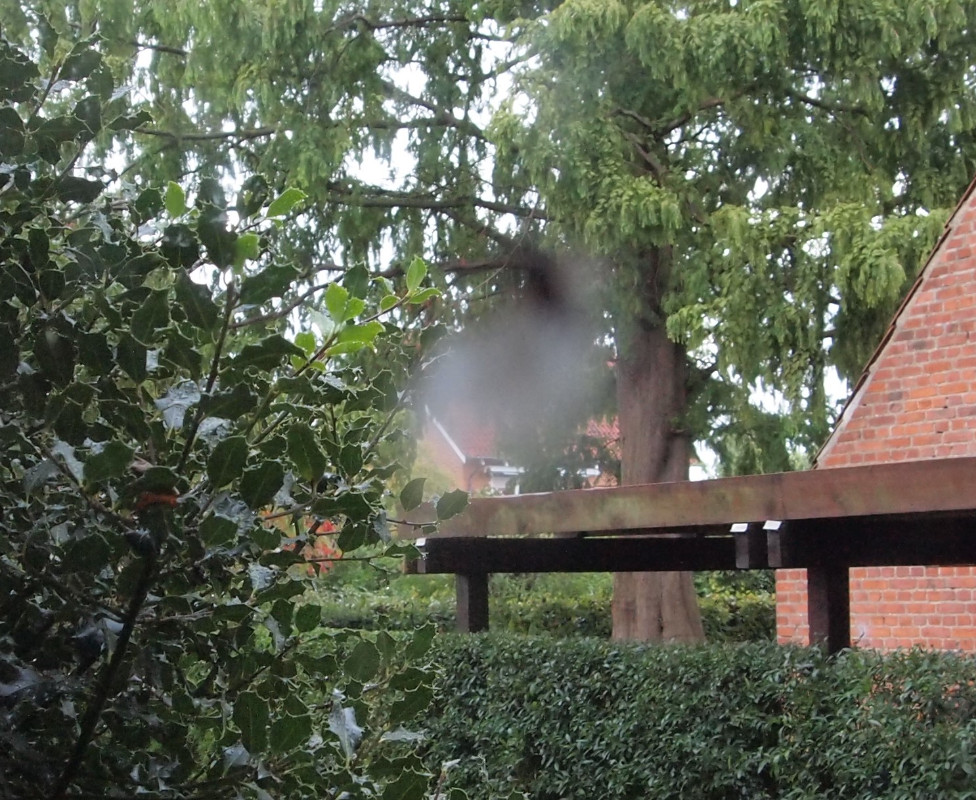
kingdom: Fungi
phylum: Entomophthoromycota
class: Entomophthoromycetes
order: Entomophthorales
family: Entomophthoraceae
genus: Entomophthora
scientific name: Entomophthora muscae
